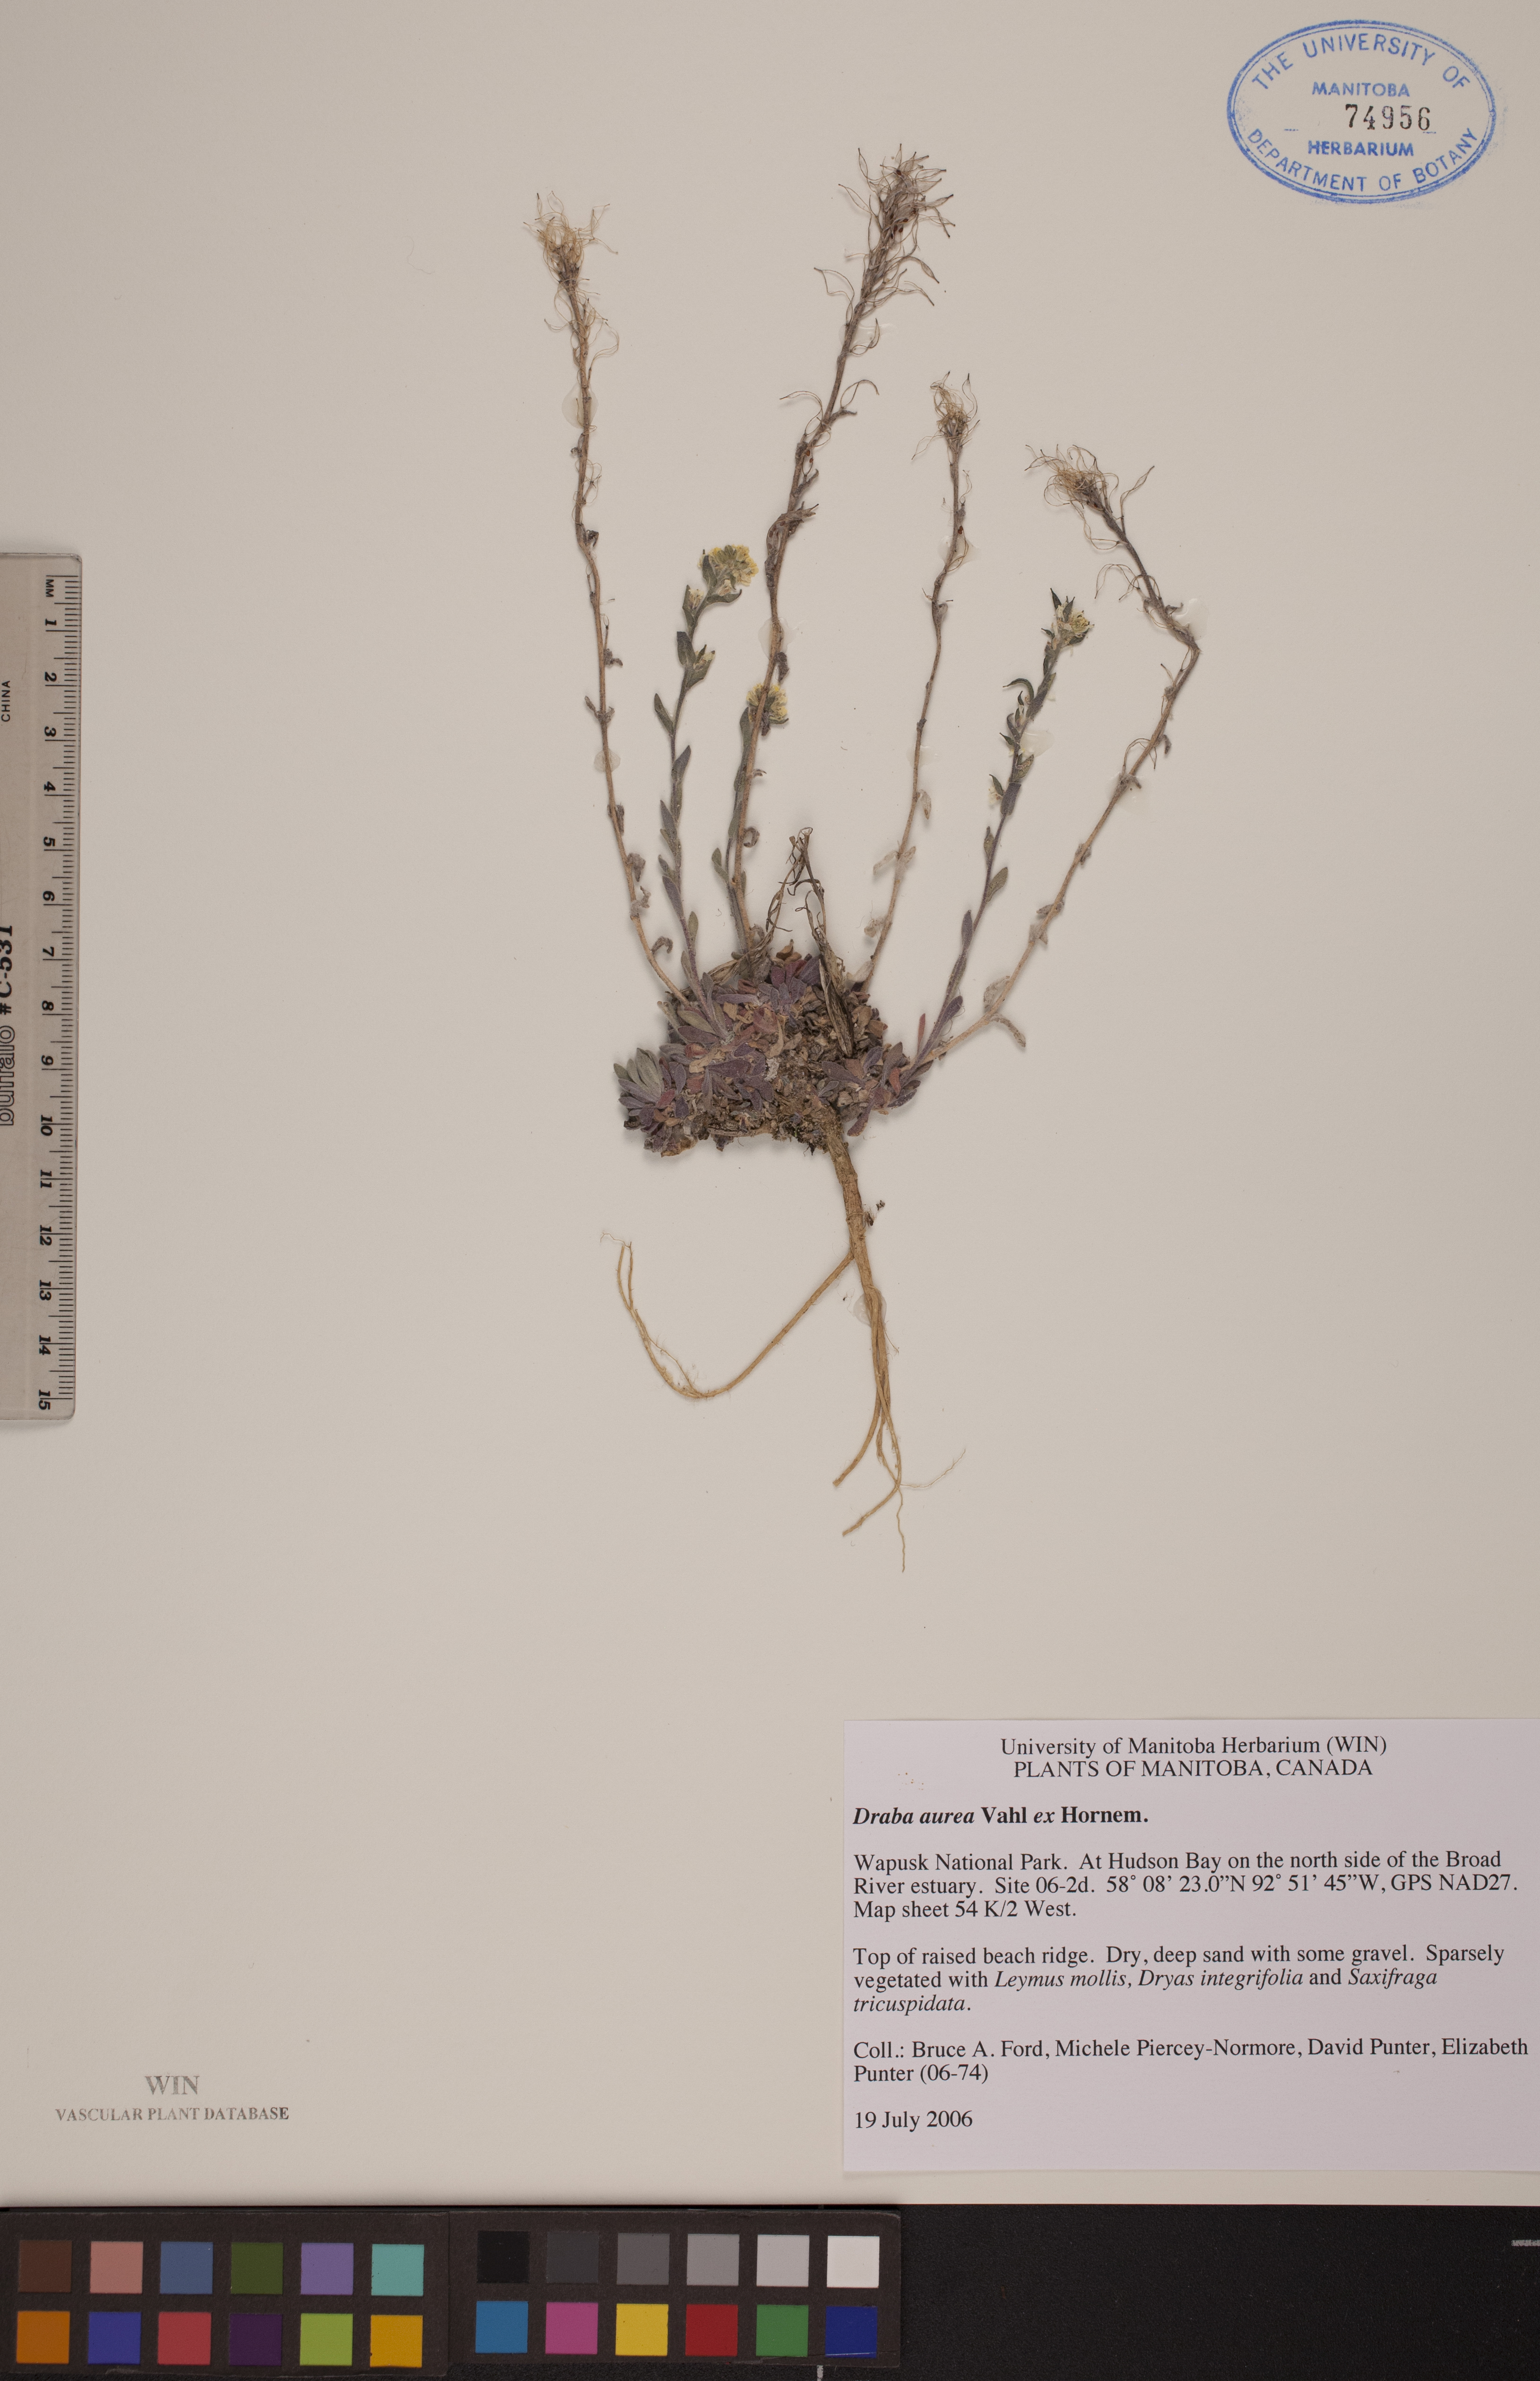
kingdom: Plantae
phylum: Tracheophyta
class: Magnoliopsida
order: Brassicales
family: Brassicaceae
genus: Draba
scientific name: Draba aurea
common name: Golden draba
